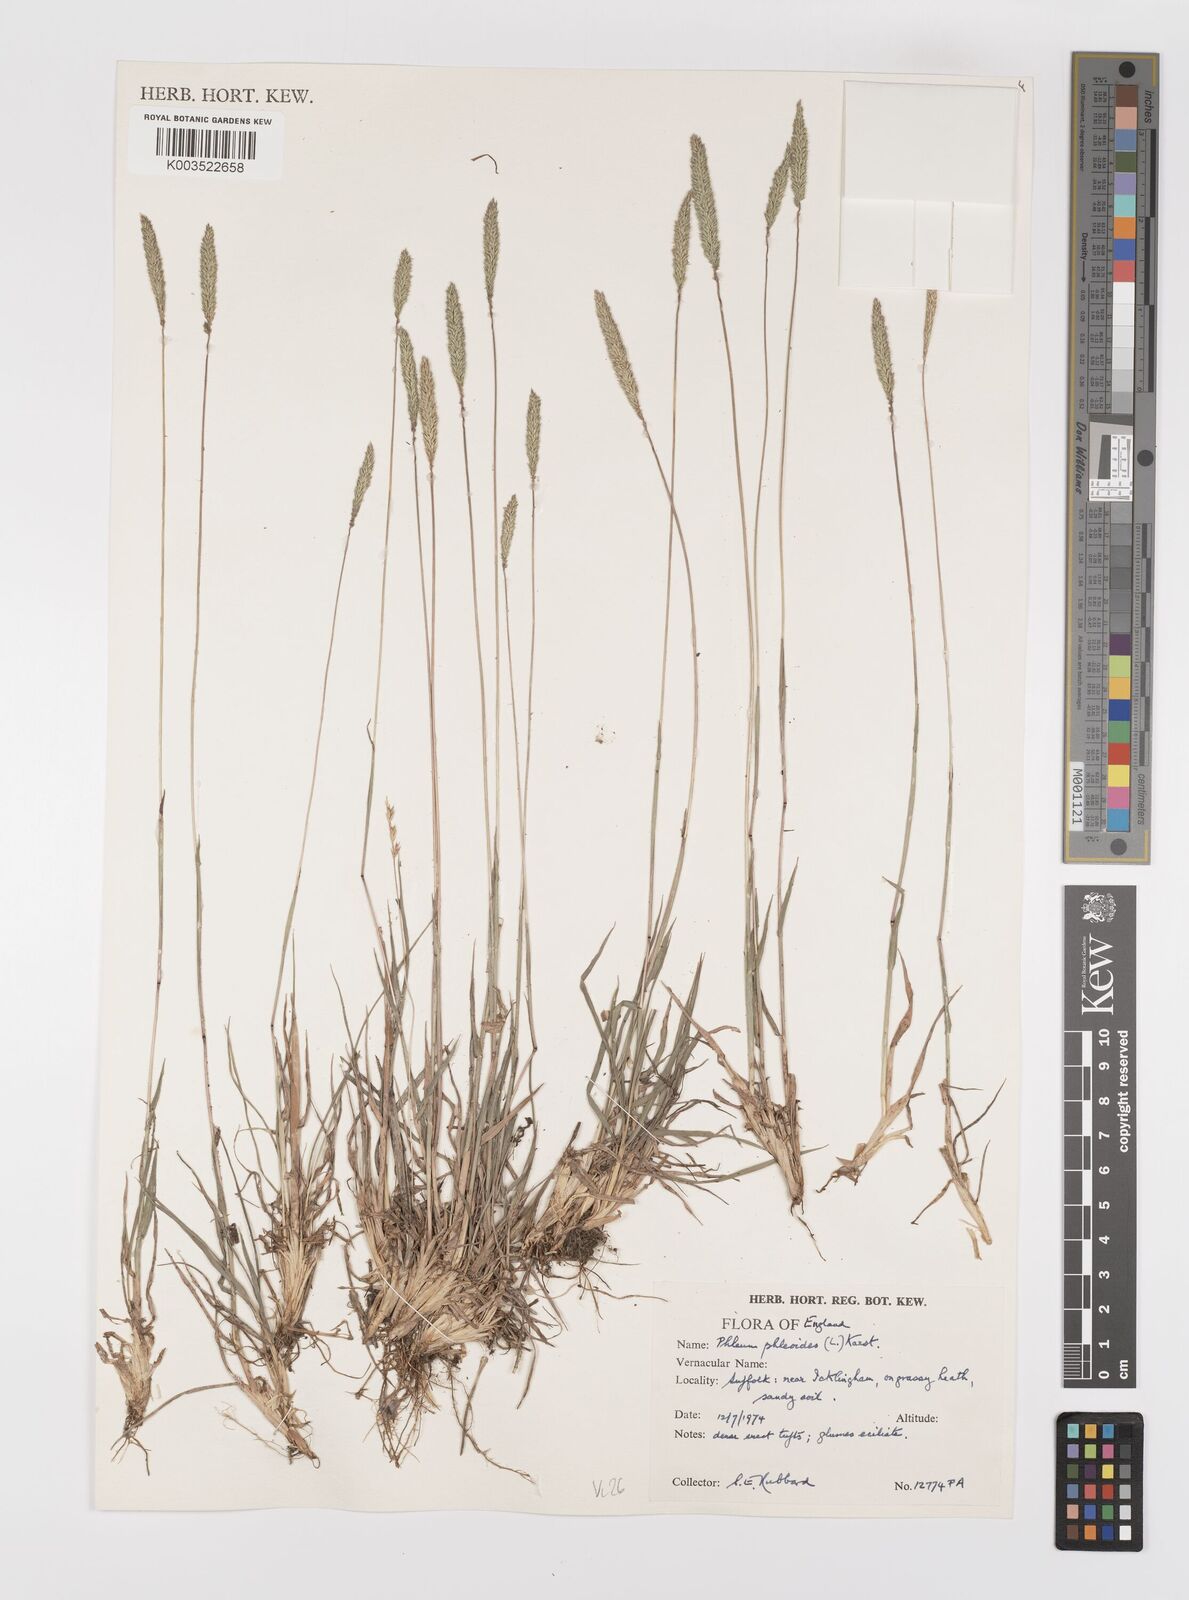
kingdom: Plantae
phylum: Tracheophyta
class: Liliopsida
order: Poales
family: Poaceae
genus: Phleum
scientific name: Phleum phleoides
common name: Purple-stem cat's-tail
